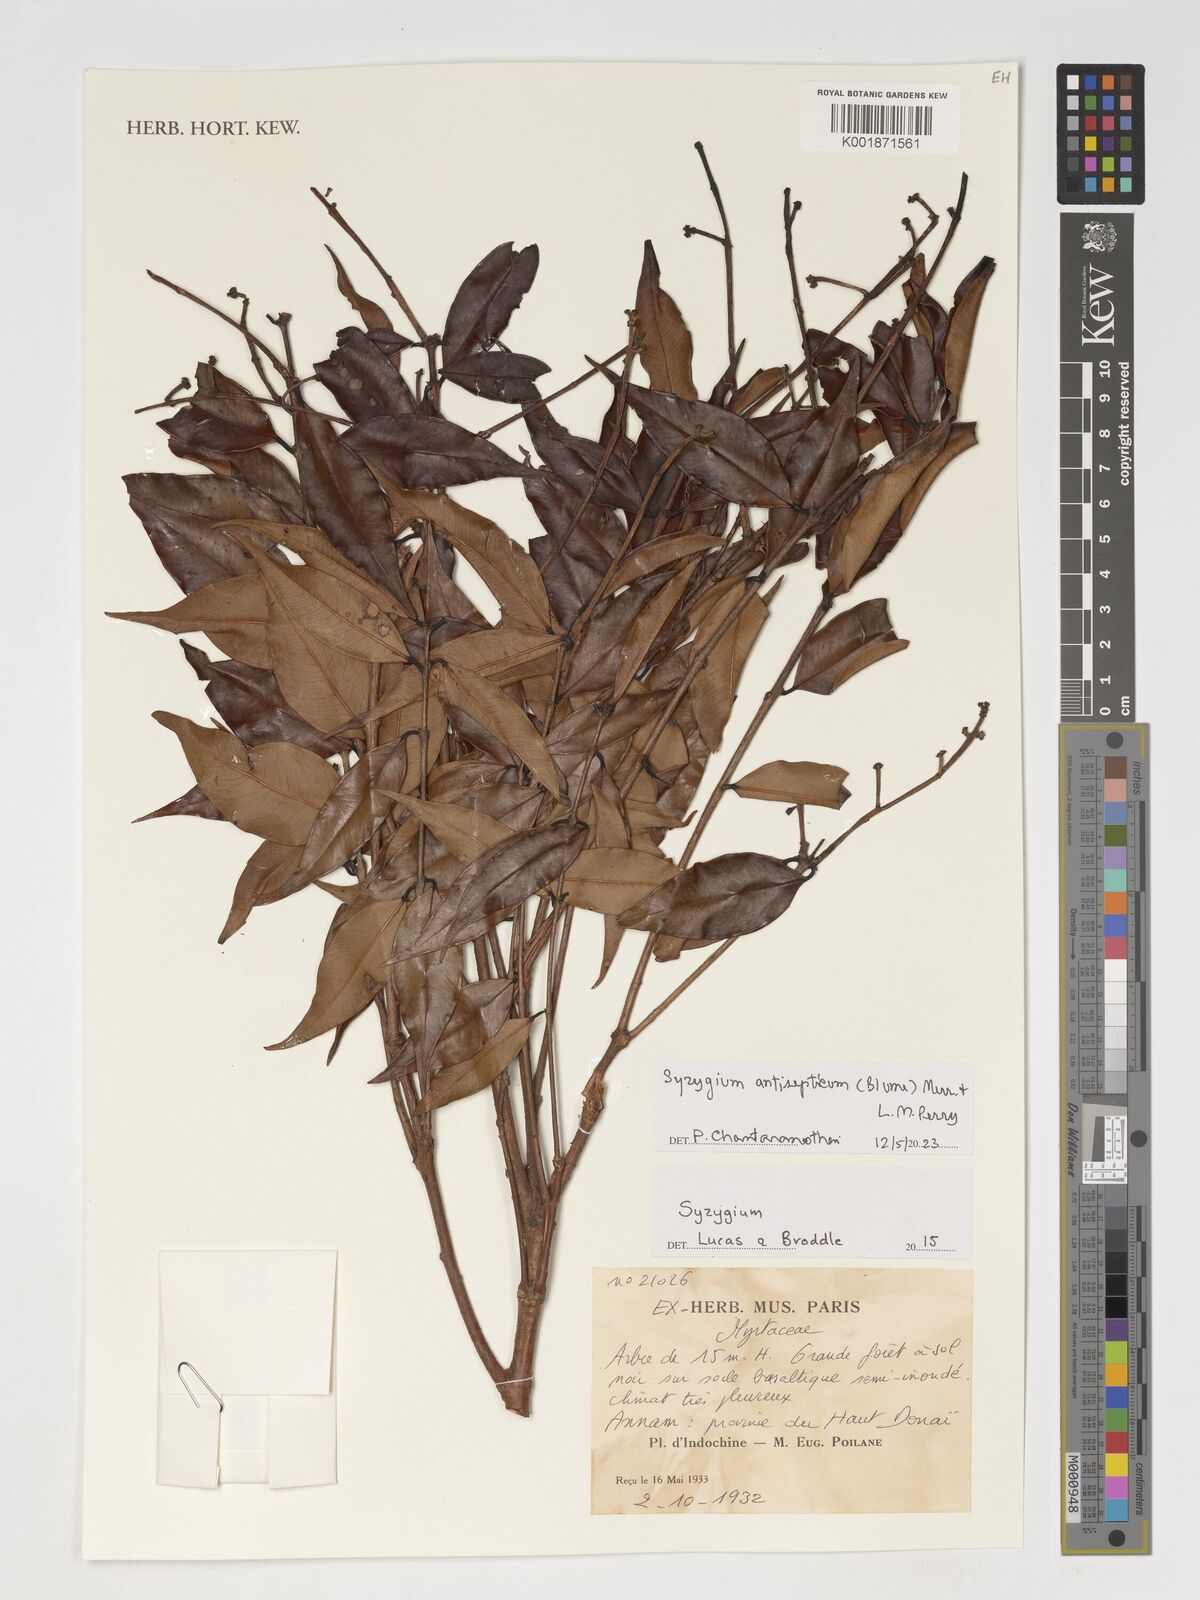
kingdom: Plantae
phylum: Tracheophyta
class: Magnoliopsida
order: Myrtales
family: Myrtaceae
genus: Syzygium
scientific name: Syzygium antisepticum
